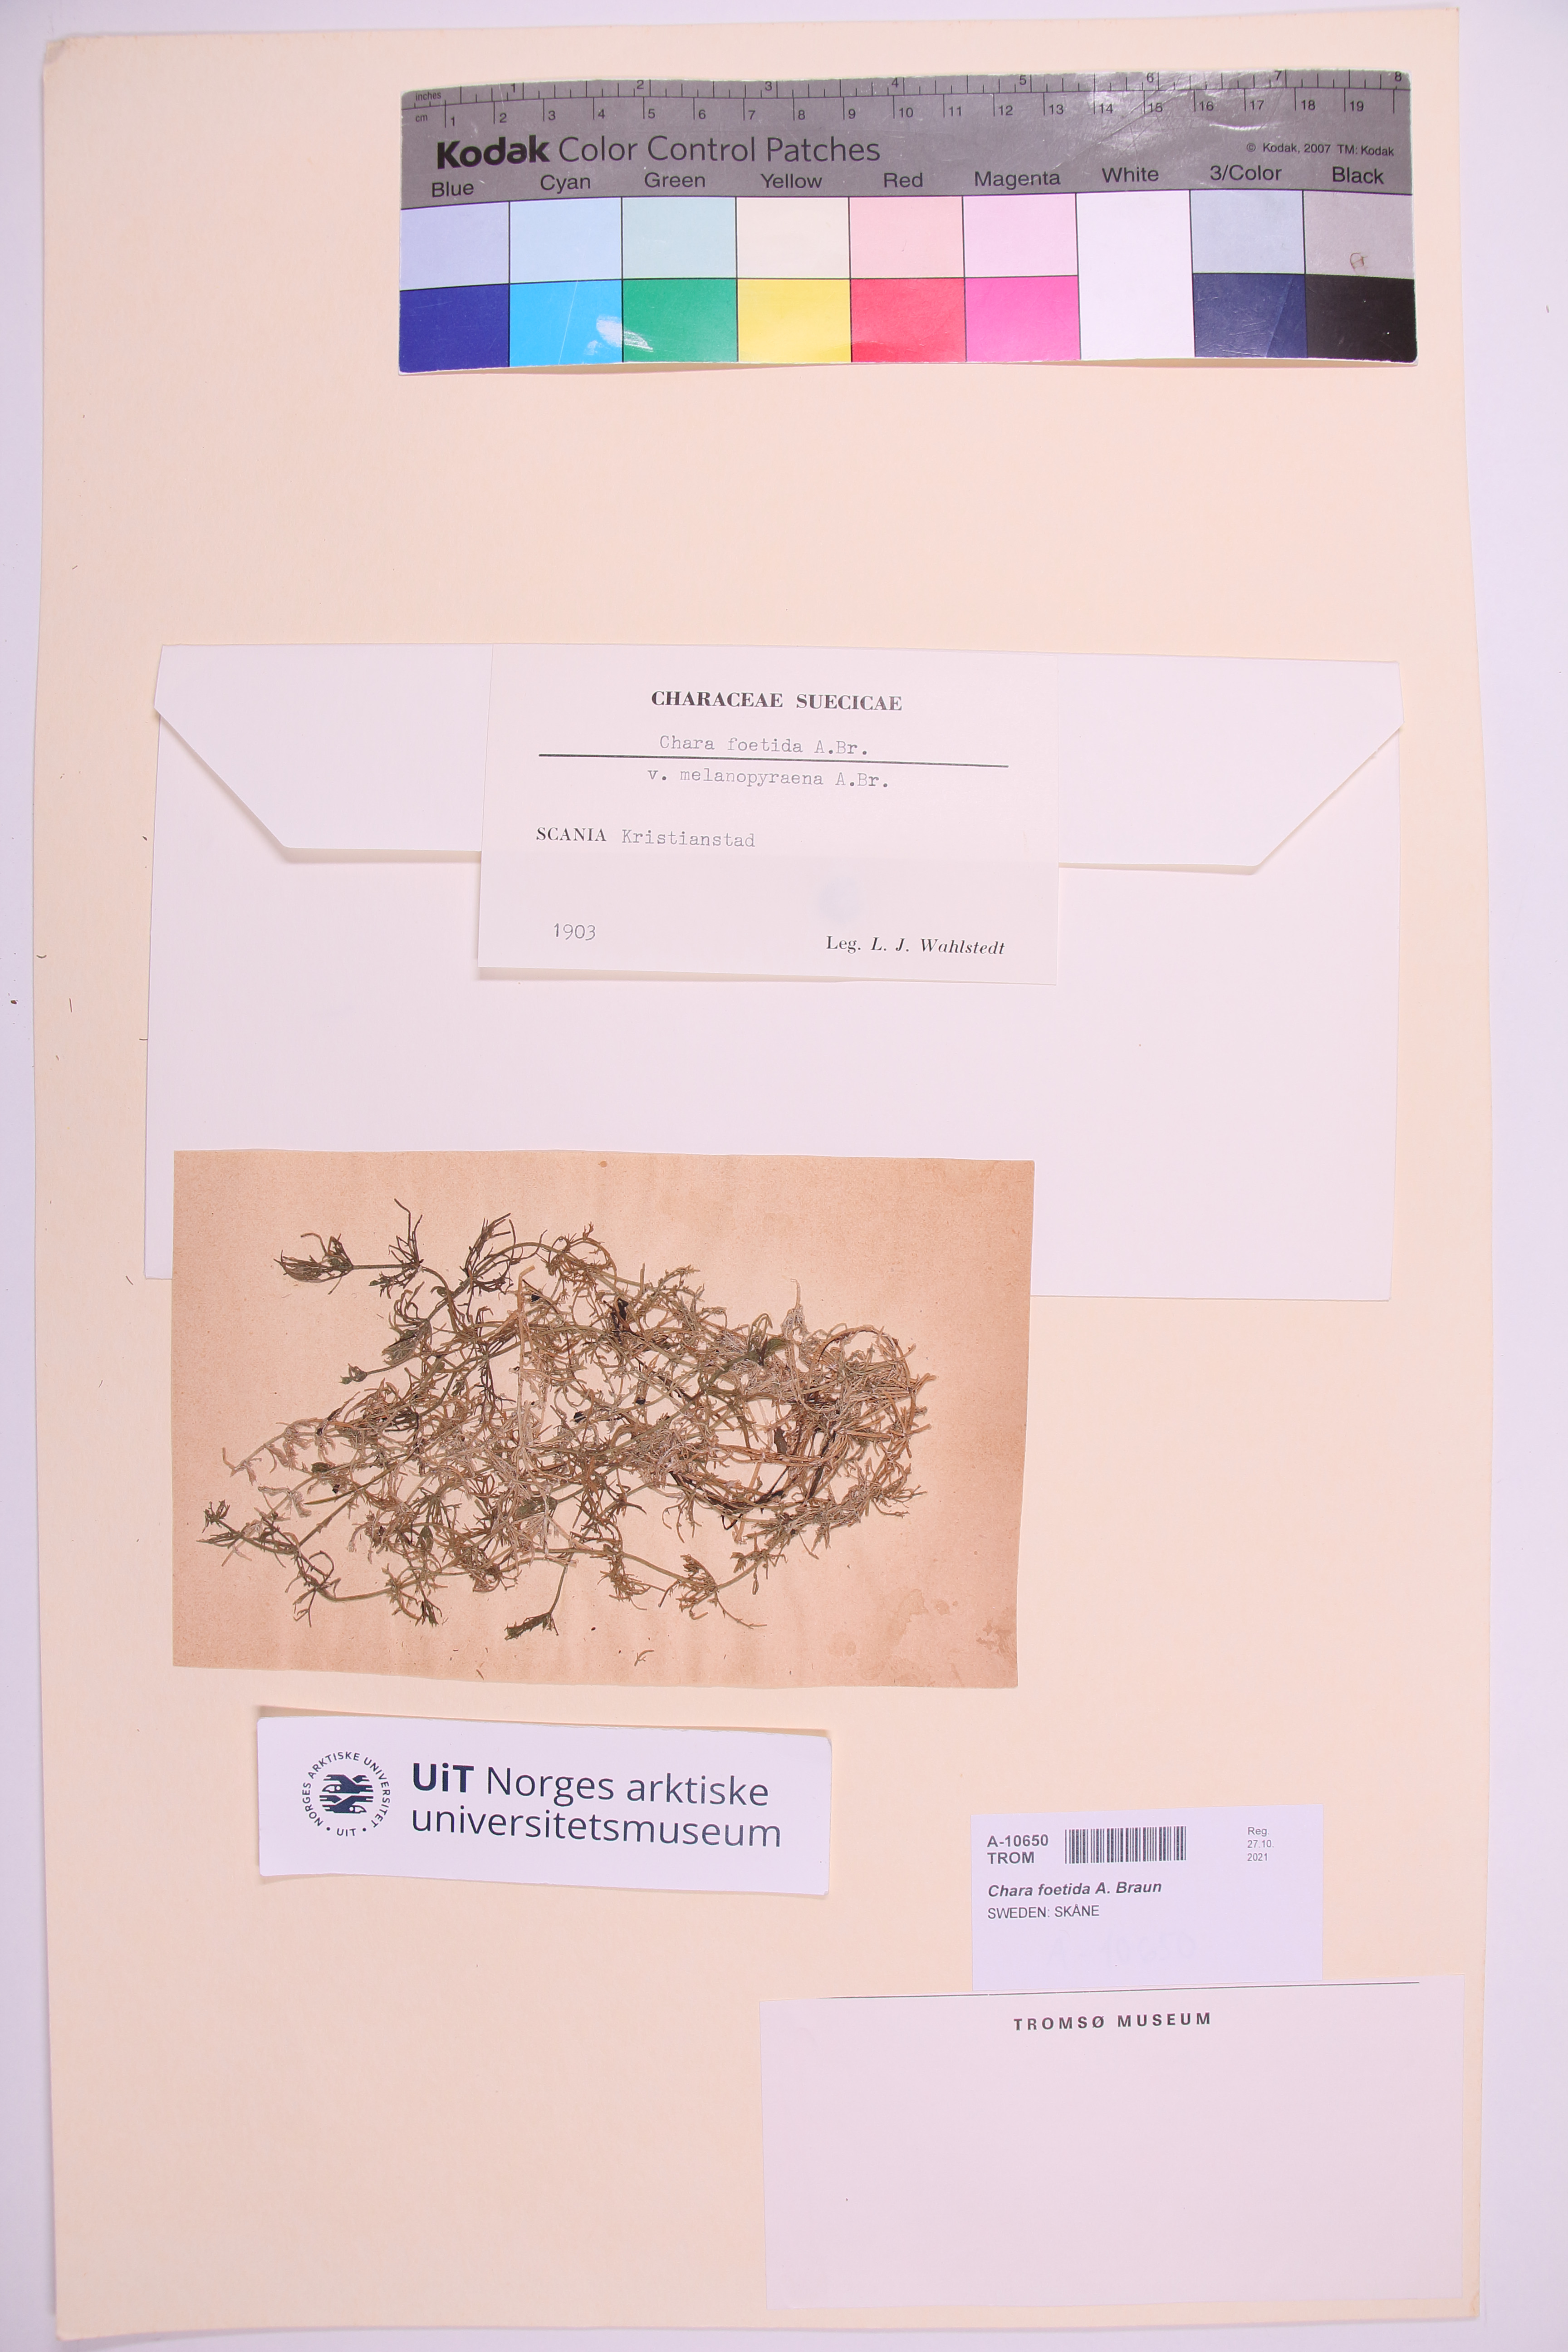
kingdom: Plantae
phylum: Charophyta
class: Charophyceae
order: Charales
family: Characeae
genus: Chara
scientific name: Chara vulgaris
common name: Common stonewort
